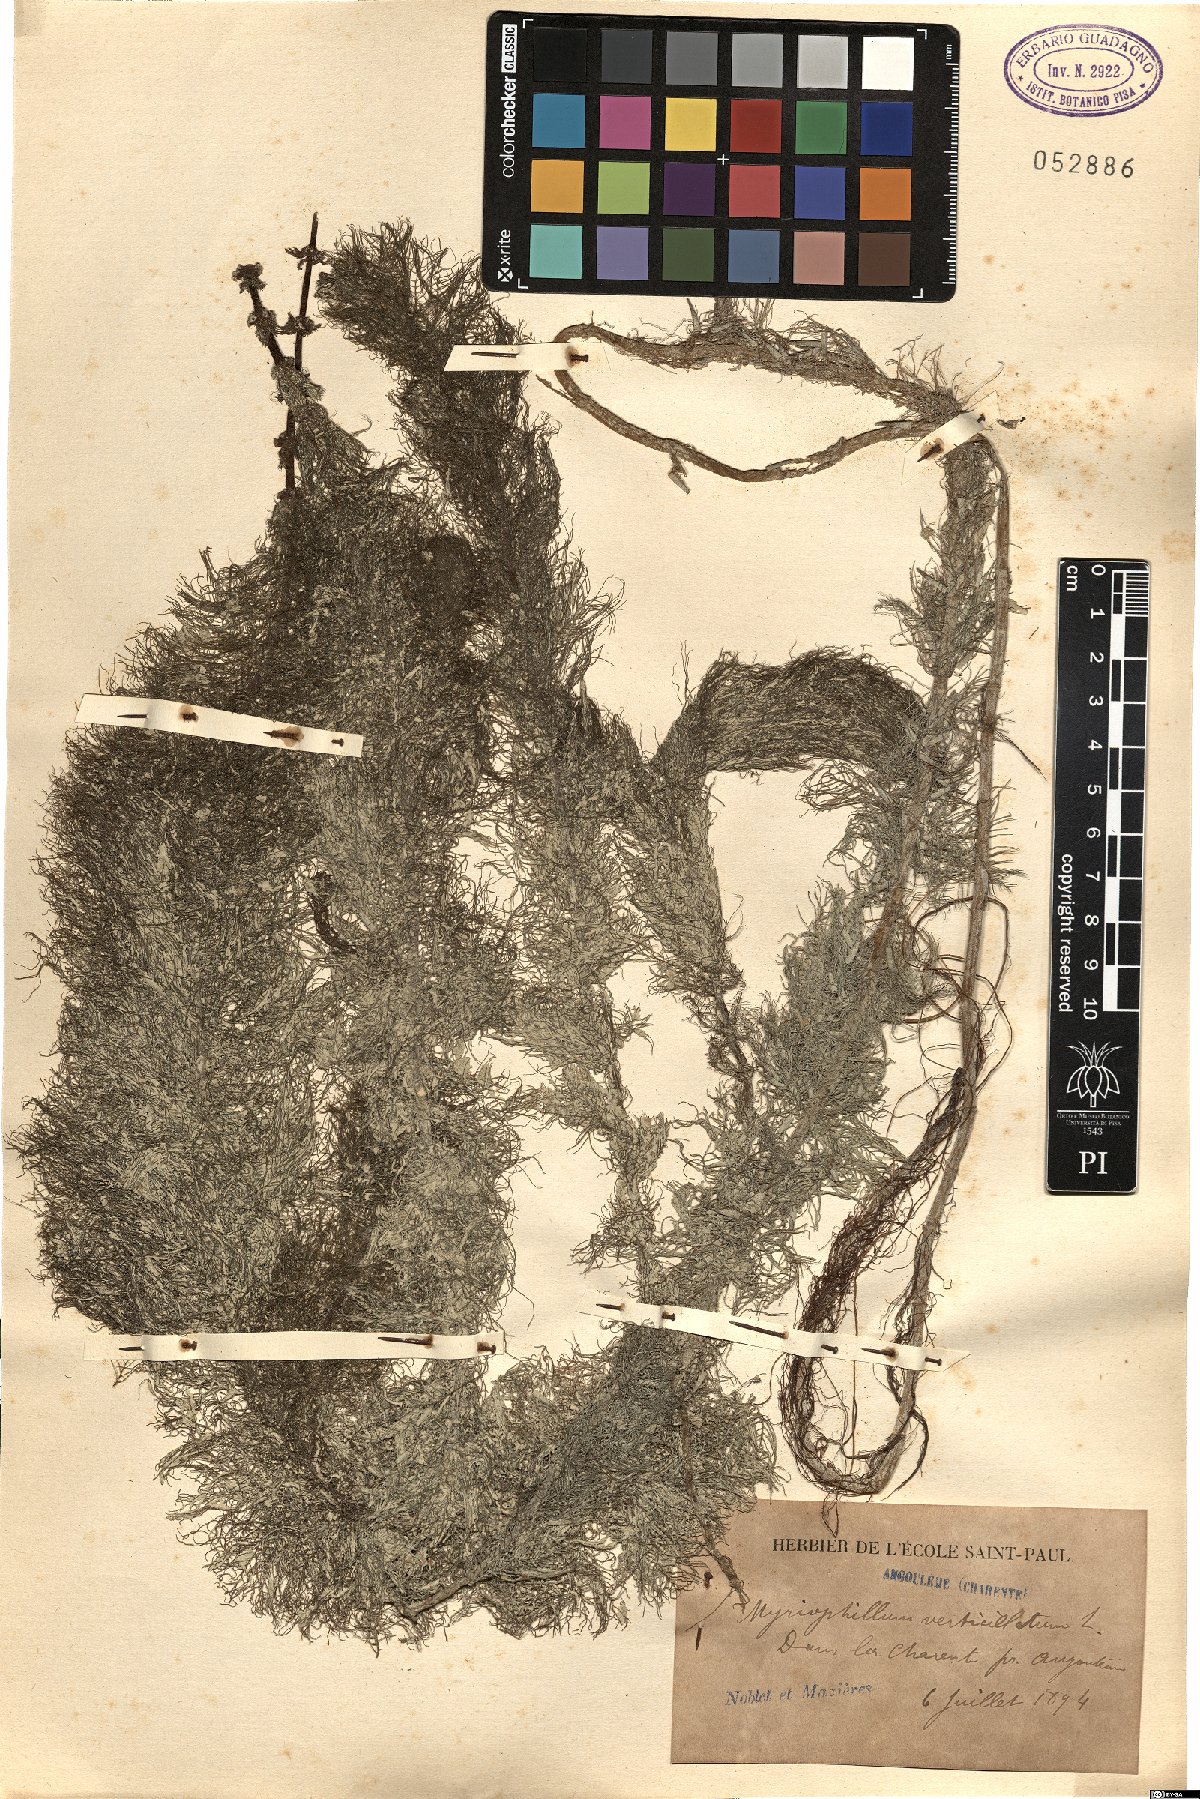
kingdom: Plantae
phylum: Tracheophyta
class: Magnoliopsida
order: Saxifragales
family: Haloragaceae
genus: Myriophyllum
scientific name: Myriophyllum verticillatum
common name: Whorled water-milfoil
